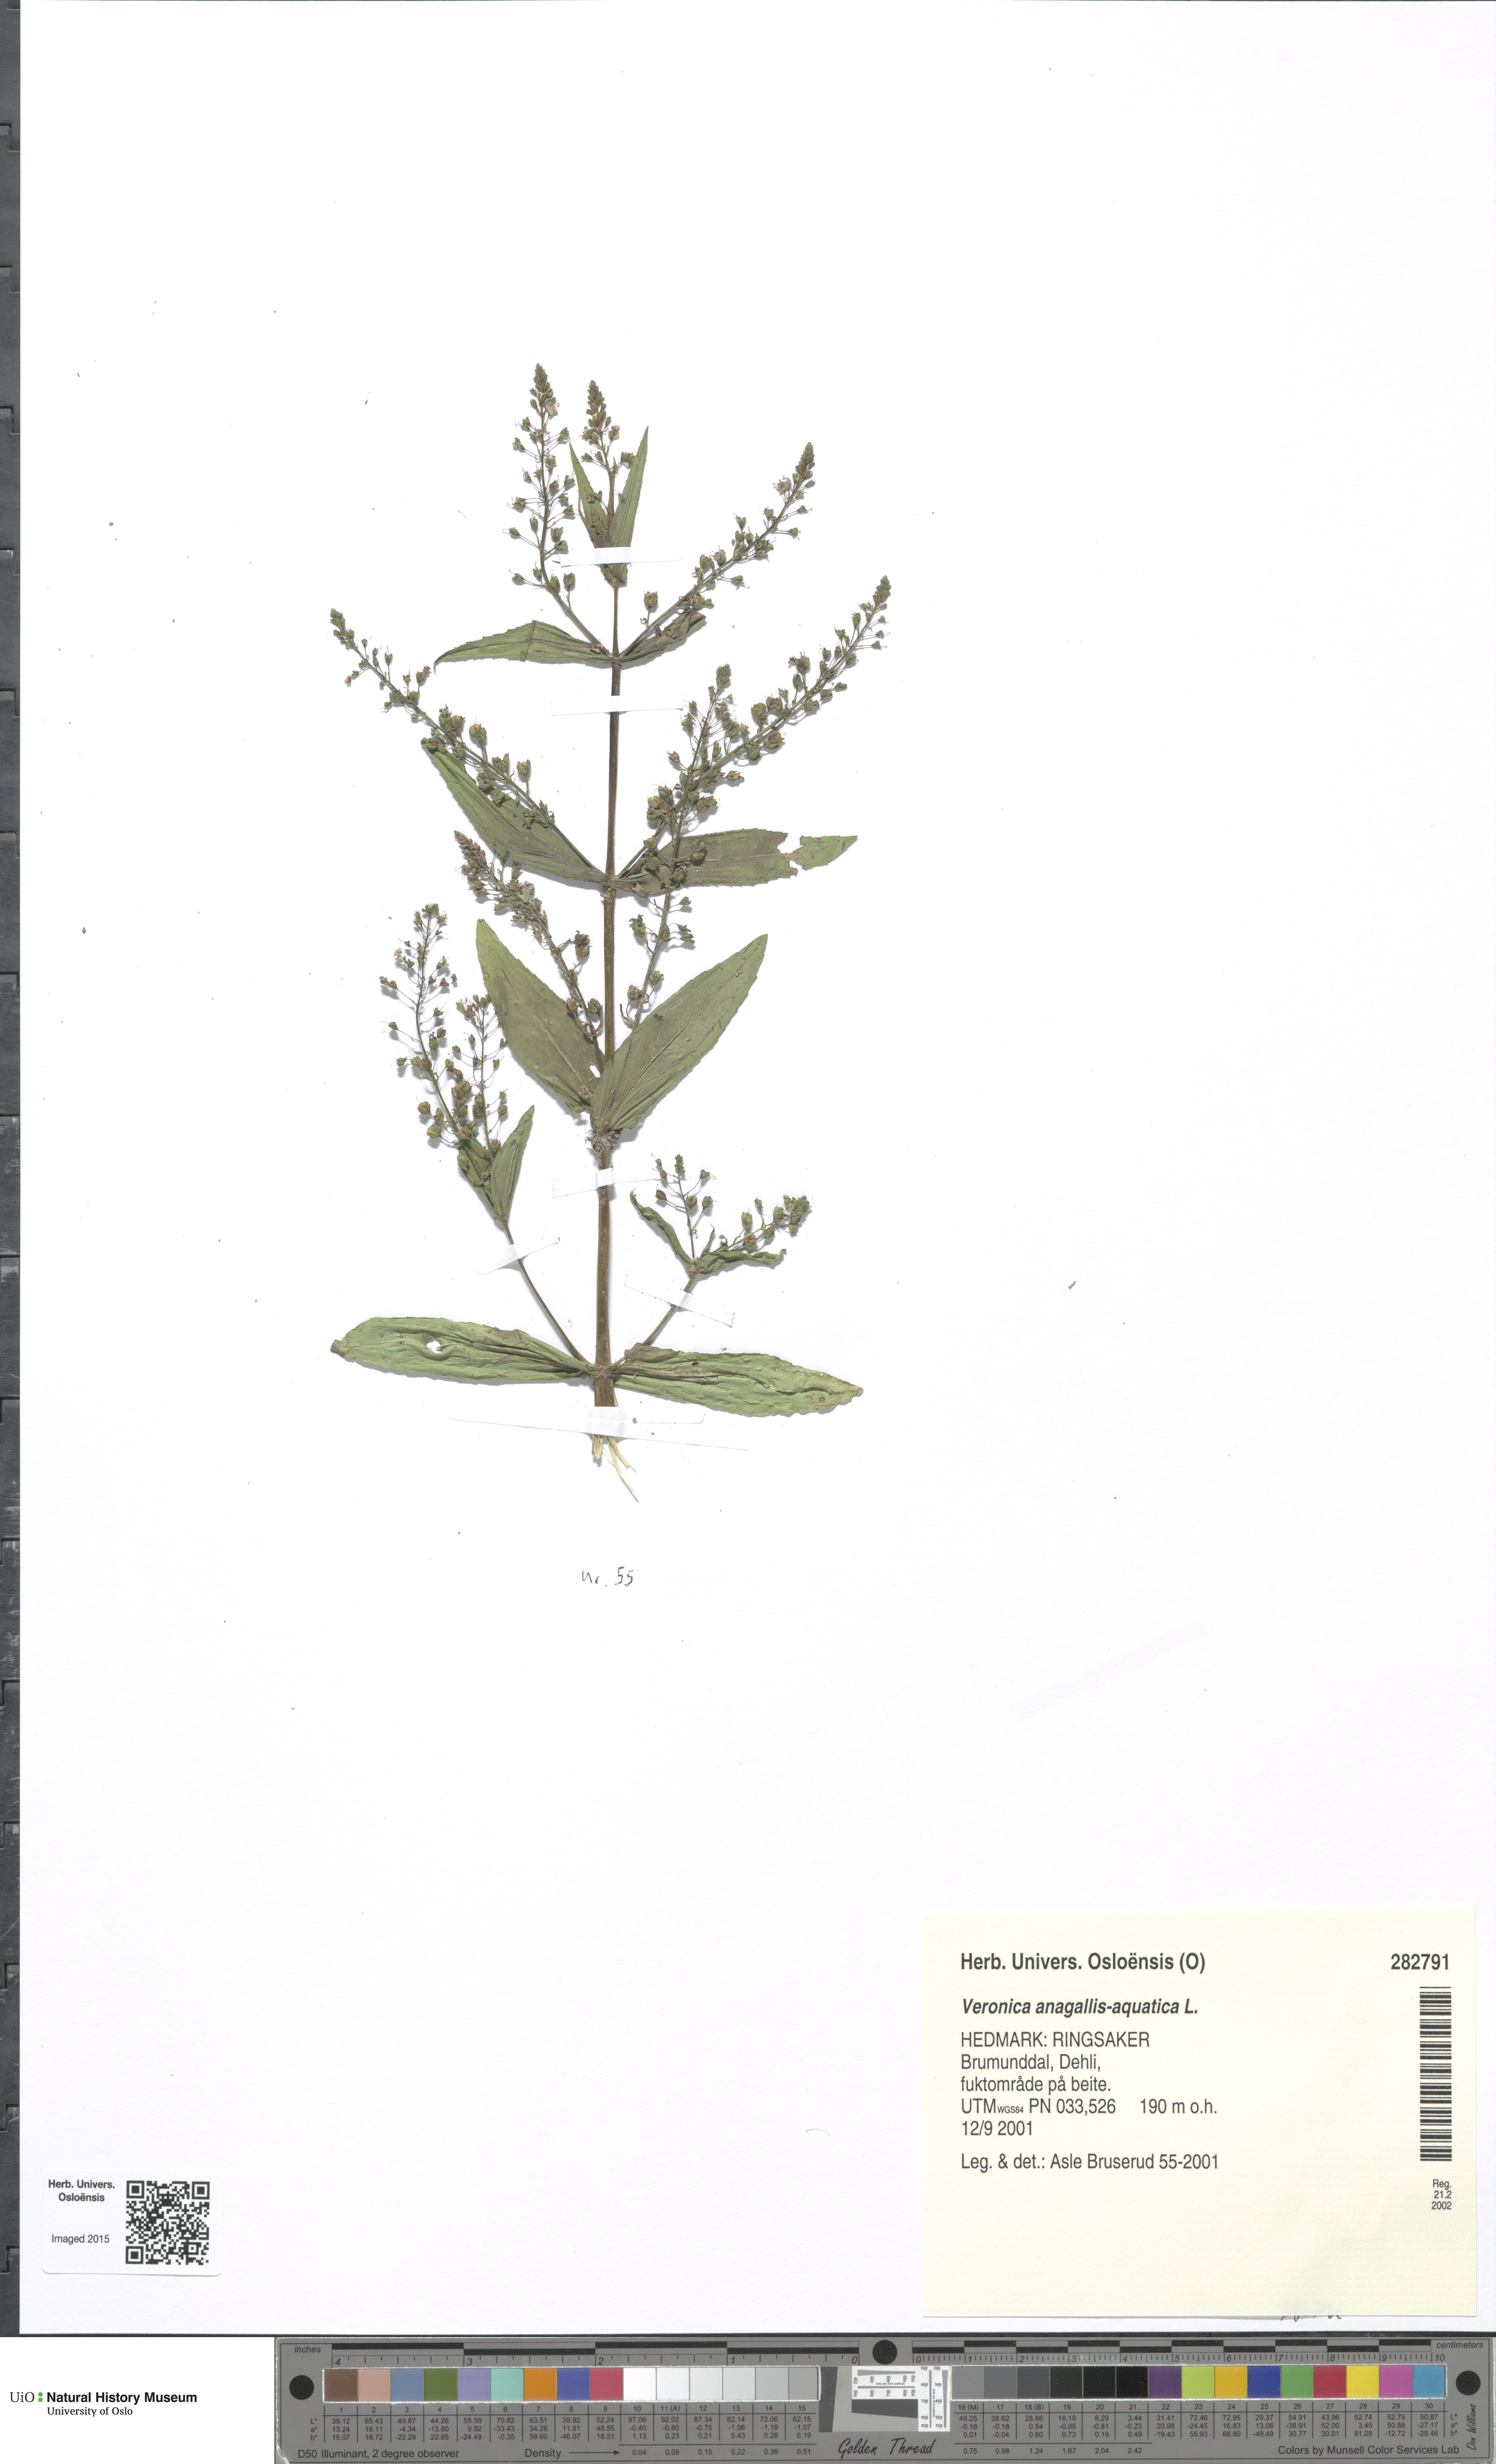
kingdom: Plantae
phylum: Tracheophyta
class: Magnoliopsida
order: Lamiales
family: Plantaginaceae
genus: Veronica
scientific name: Veronica anagallis-aquatica
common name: Water speedwell
